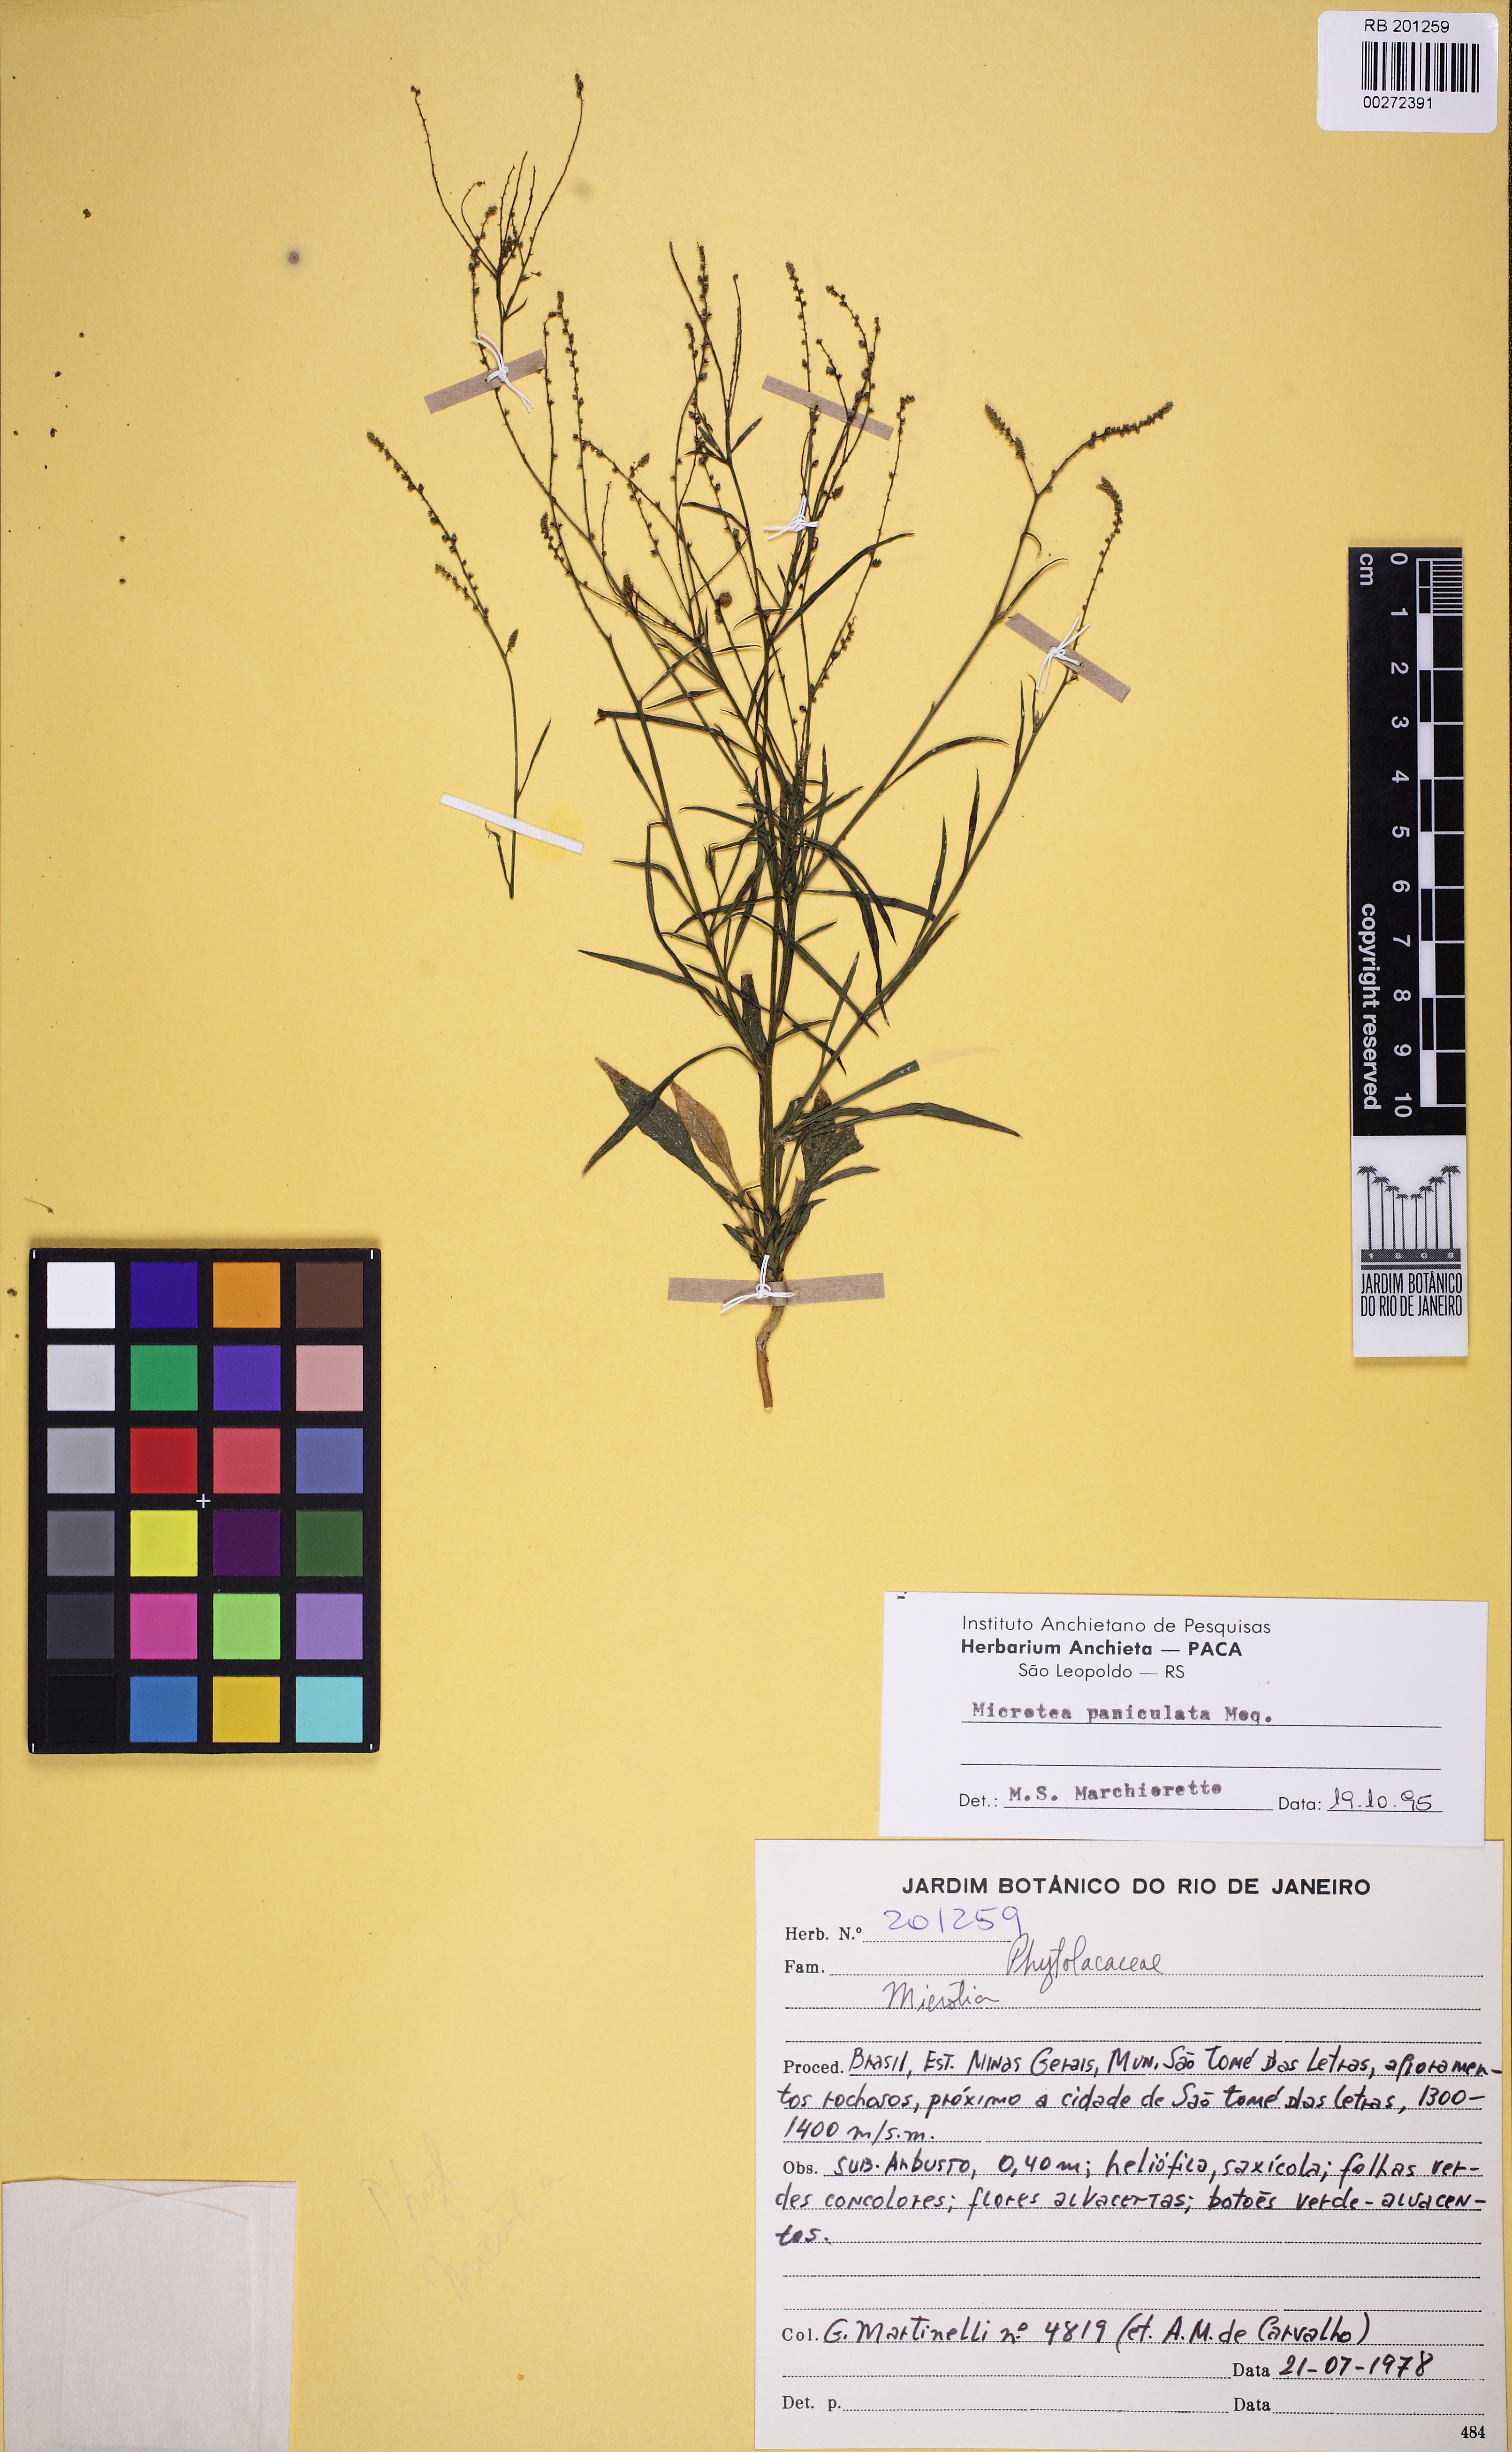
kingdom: Plantae
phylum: Tracheophyta
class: Magnoliopsida
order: Caryophyllales
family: Microteaceae
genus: Microtea
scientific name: Microtea paniculata
